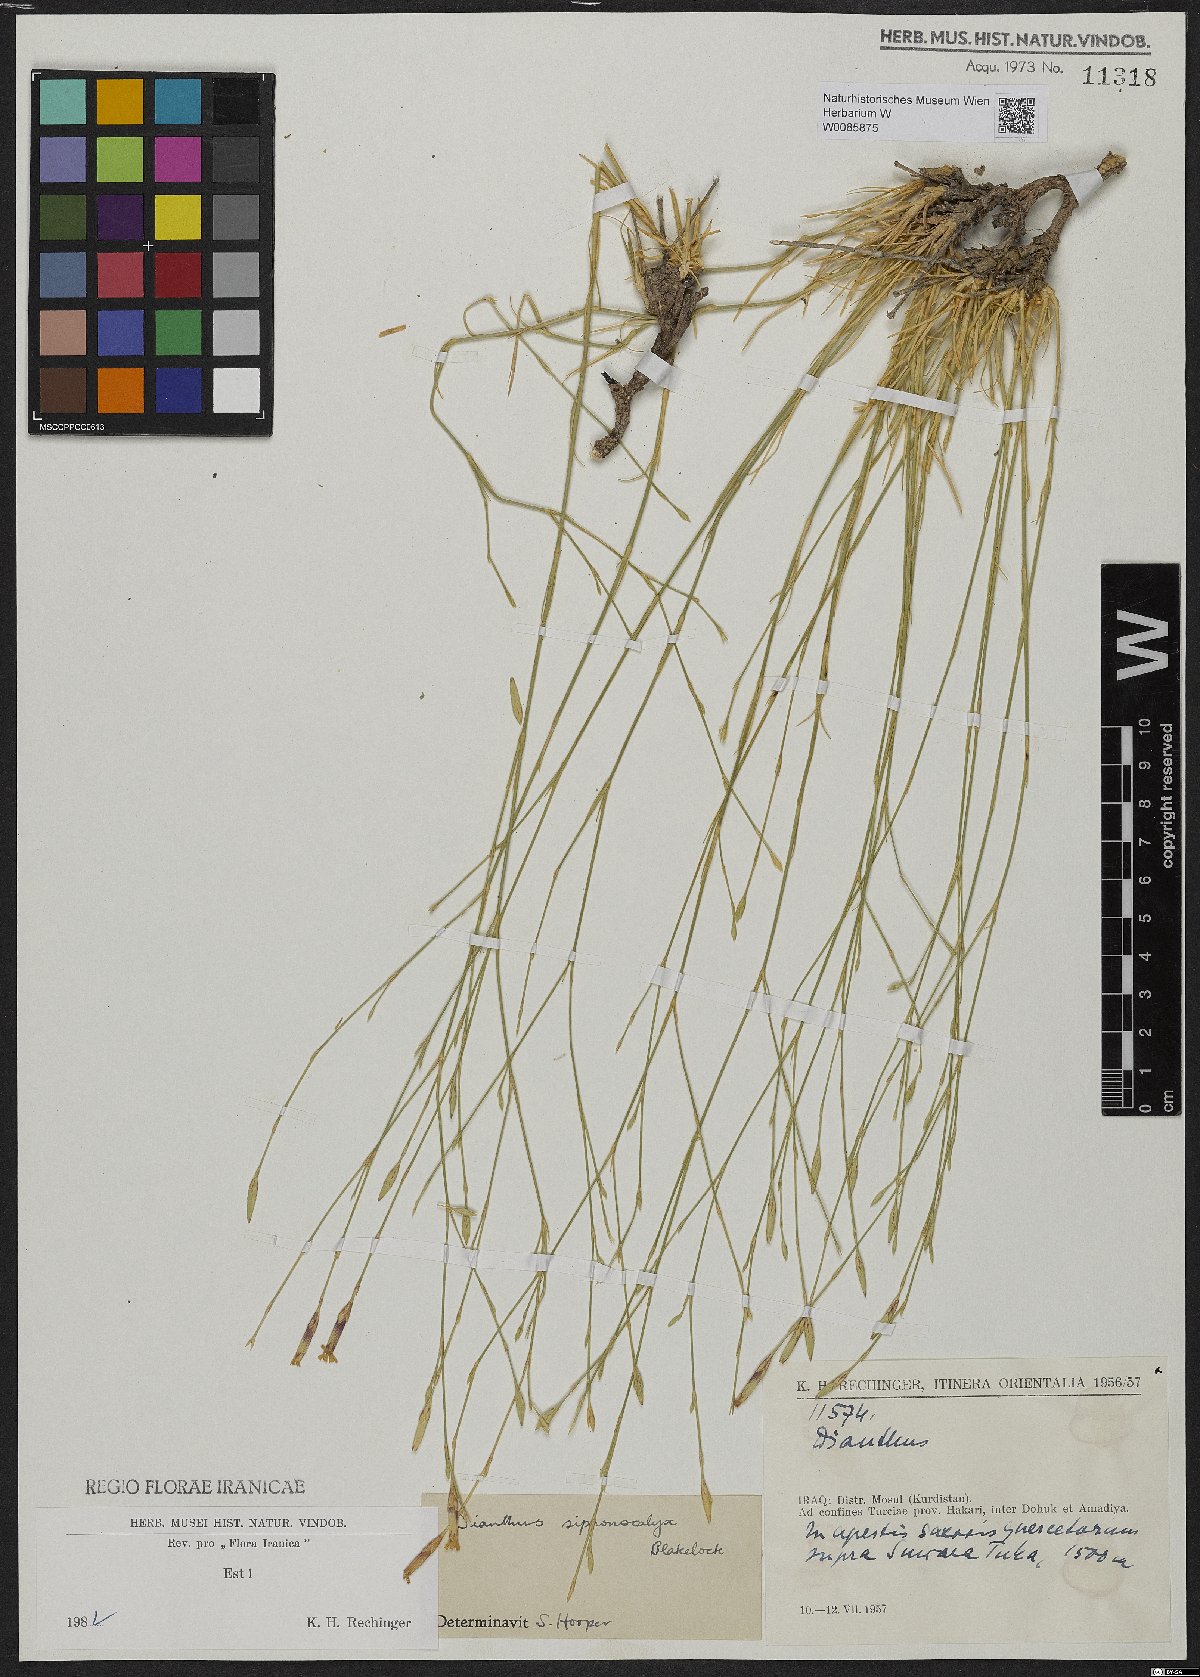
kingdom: Plantae
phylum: Tracheophyta
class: Magnoliopsida
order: Caryophyllales
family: Caryophyllaceae
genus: Dianthus
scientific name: Dianthus siphonocalyx
